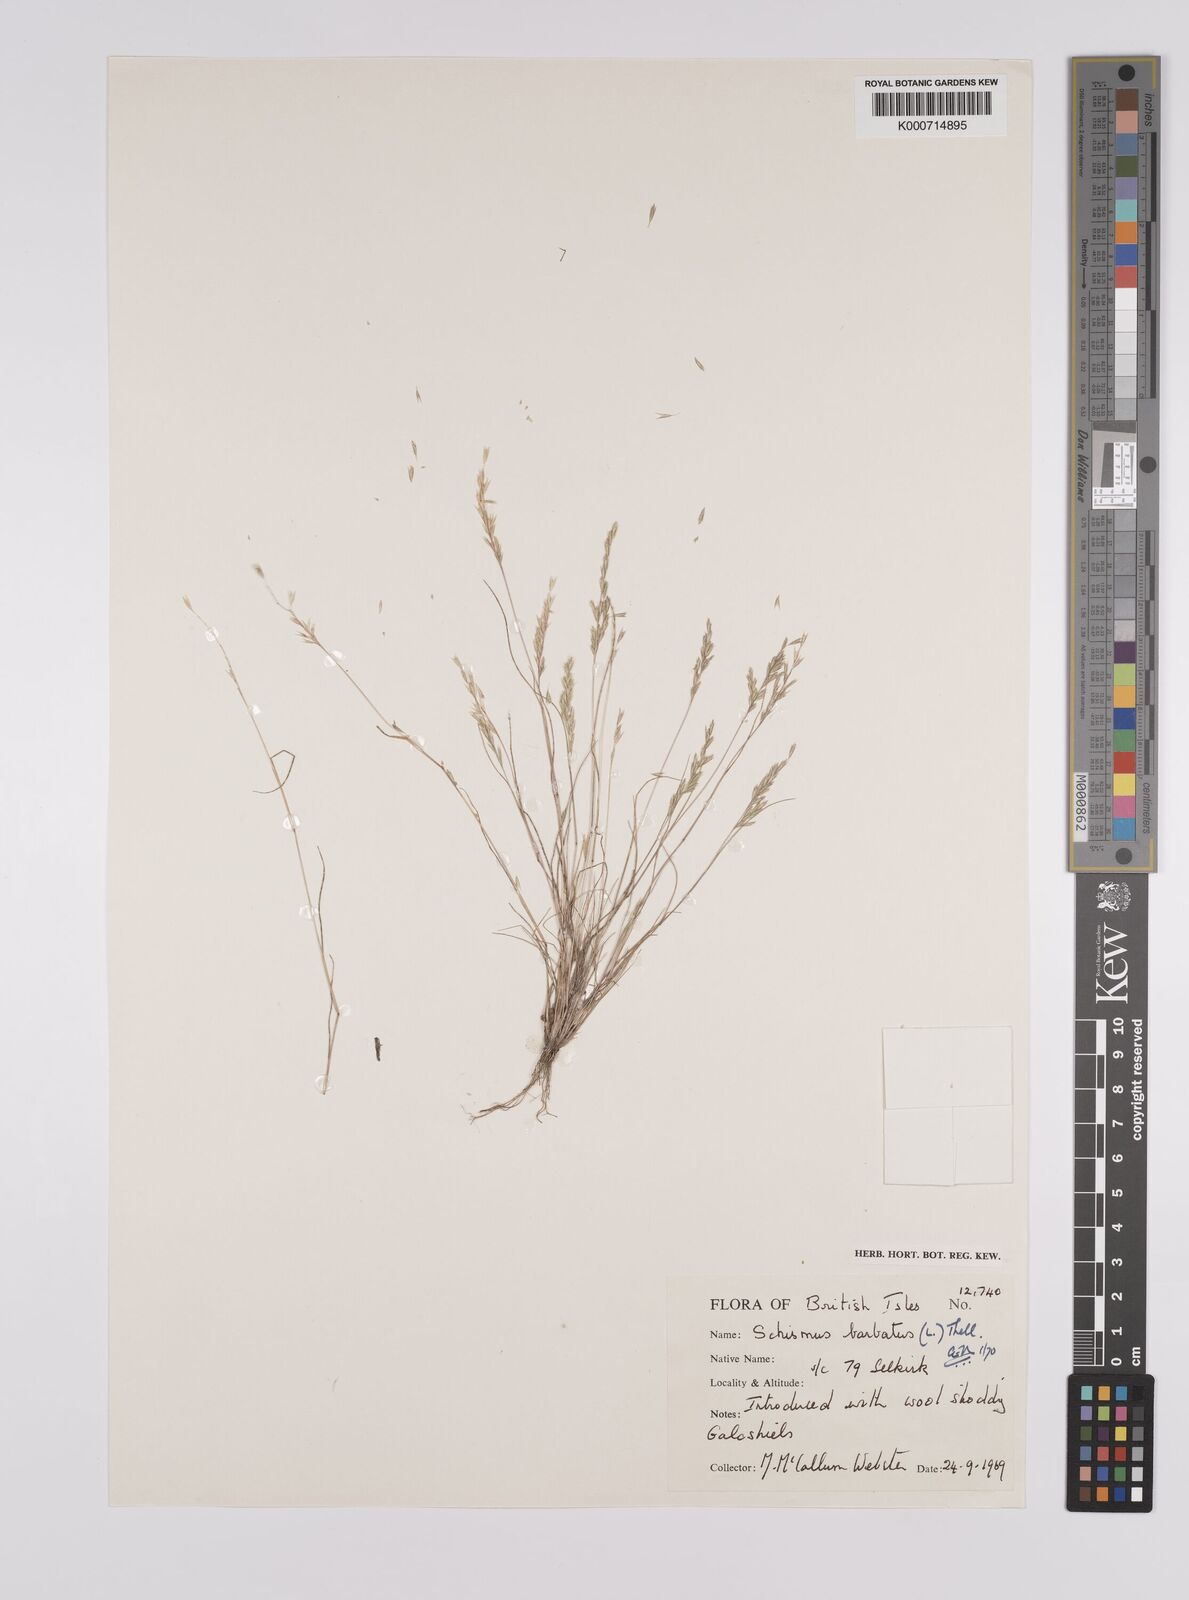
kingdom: Plantae
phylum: Tracheophyta
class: Liliopsida
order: Poales
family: Poaceae
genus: Schismus
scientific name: Schismus barbatus
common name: Kelch-grass
